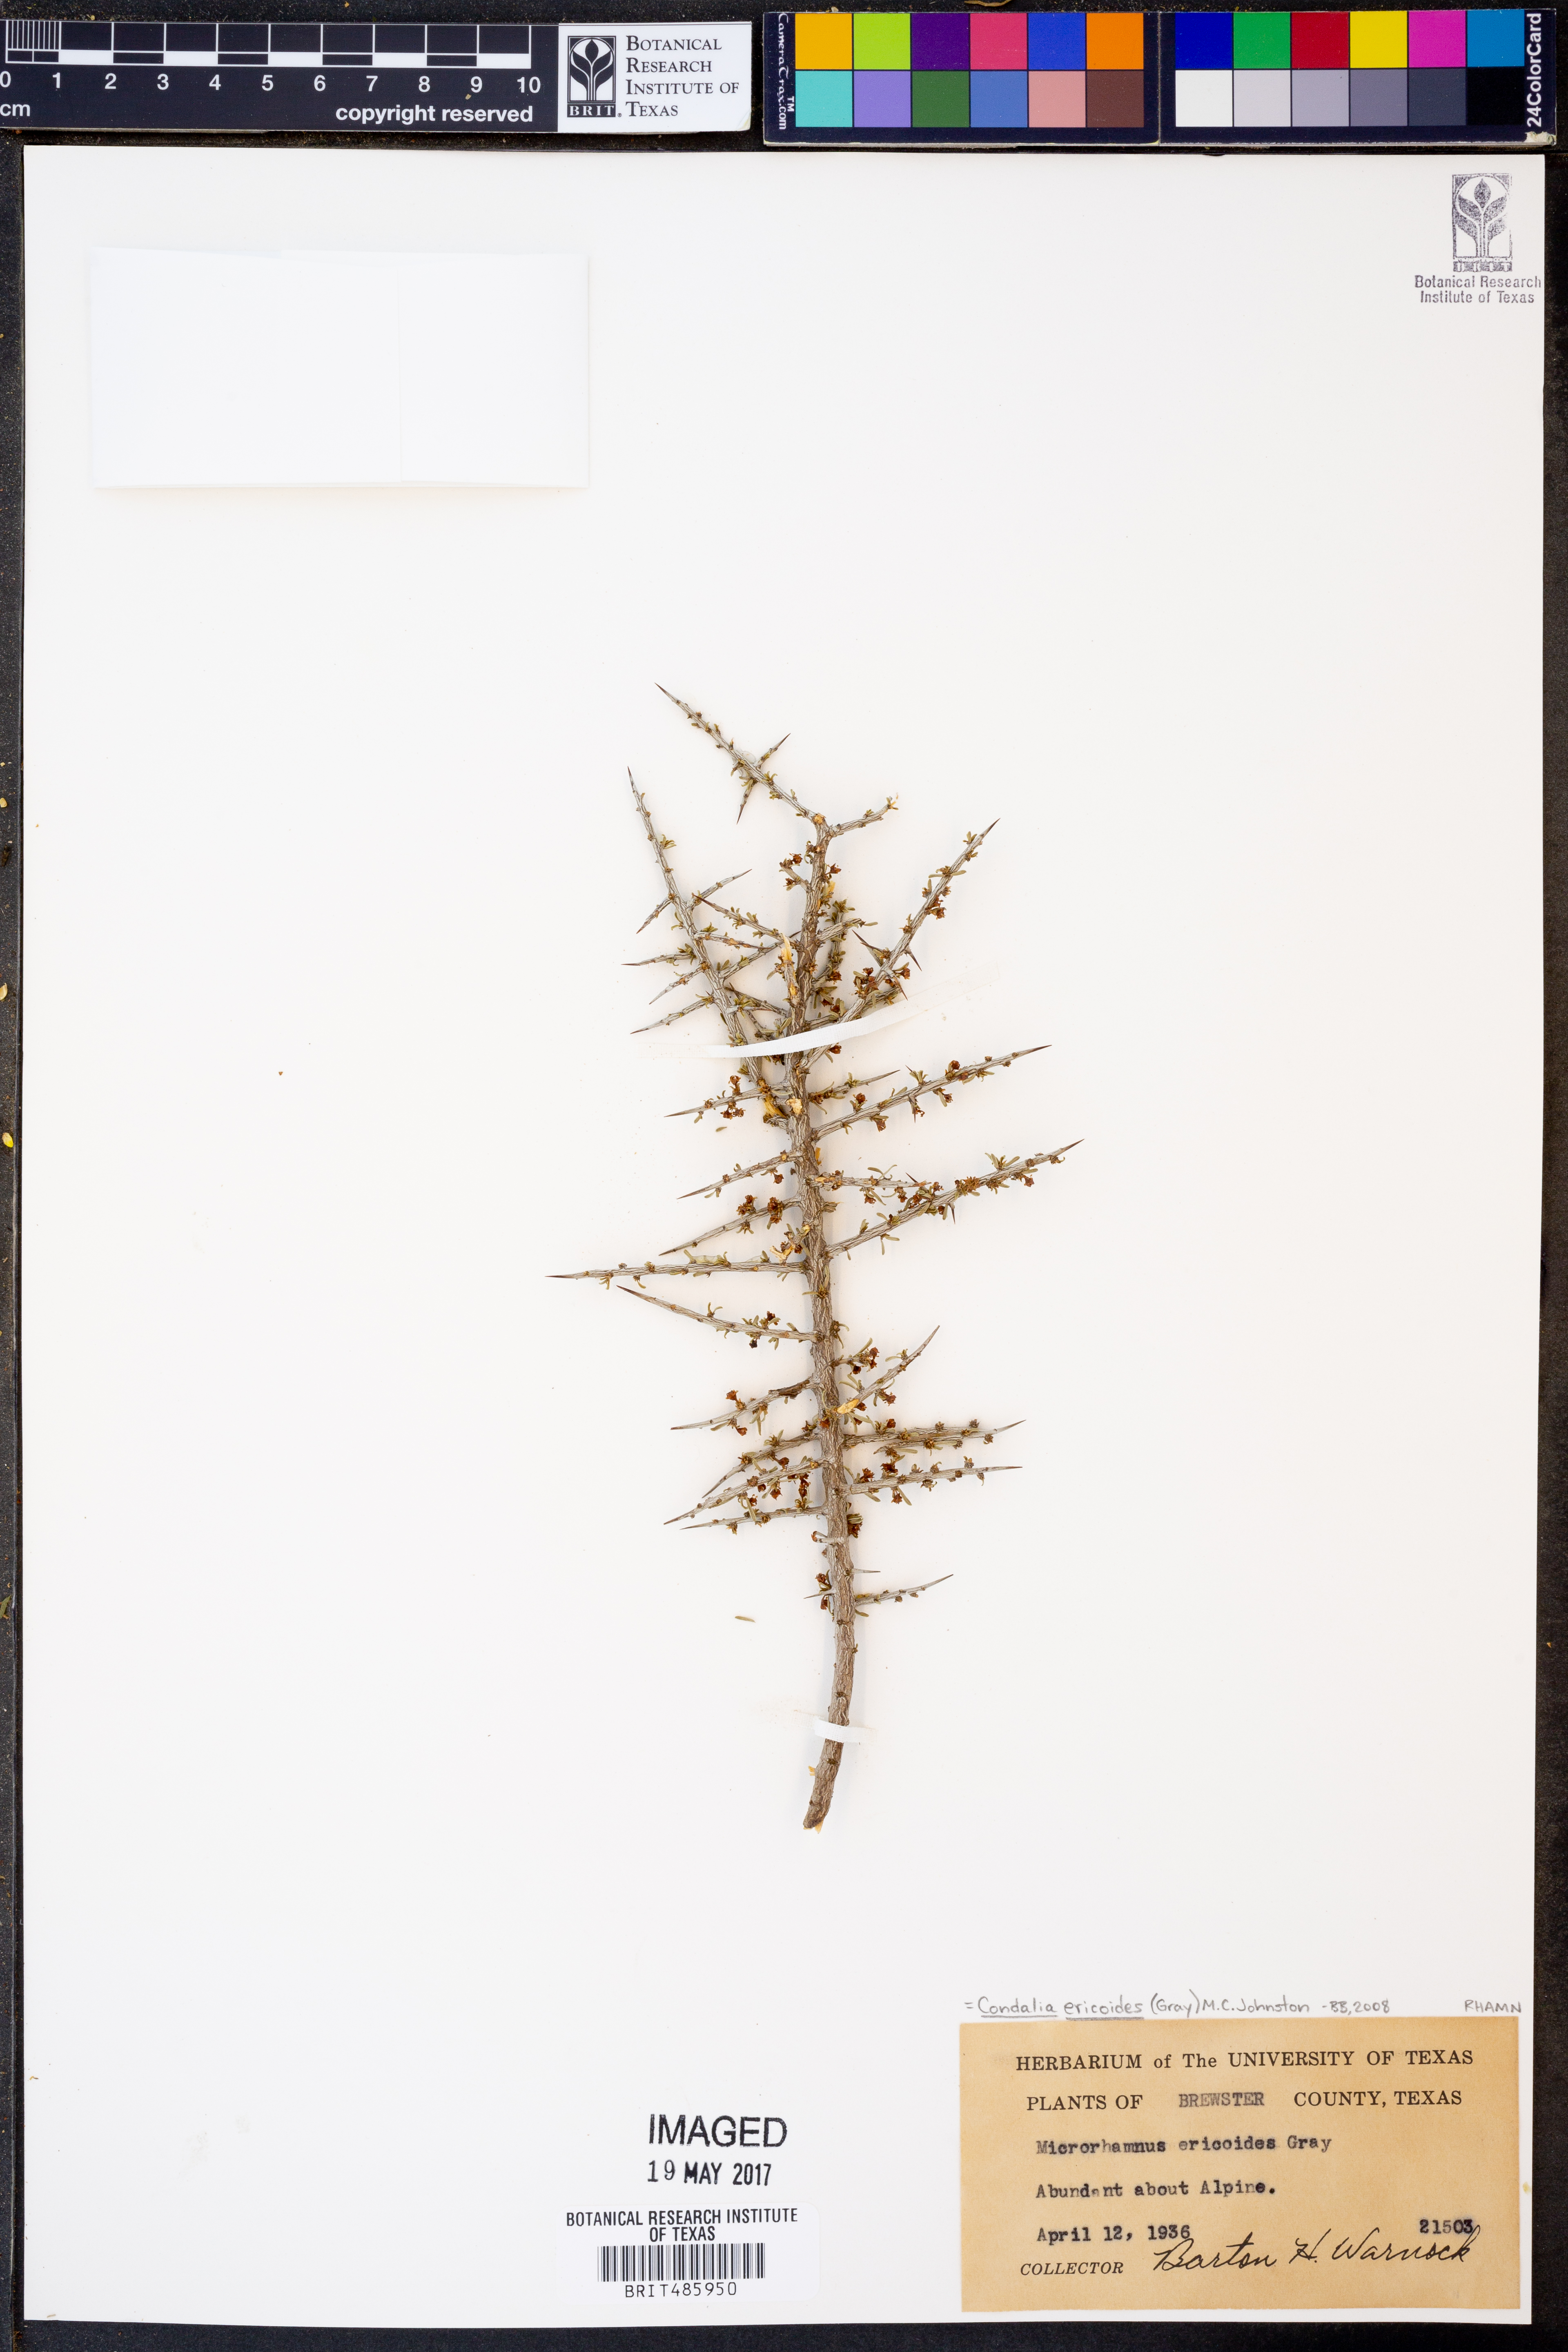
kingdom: Plantae
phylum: Tracheophyta
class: Magnoliopsida
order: Rosales
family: Rhamnaceae
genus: Condalia
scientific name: Condalia ericoides
